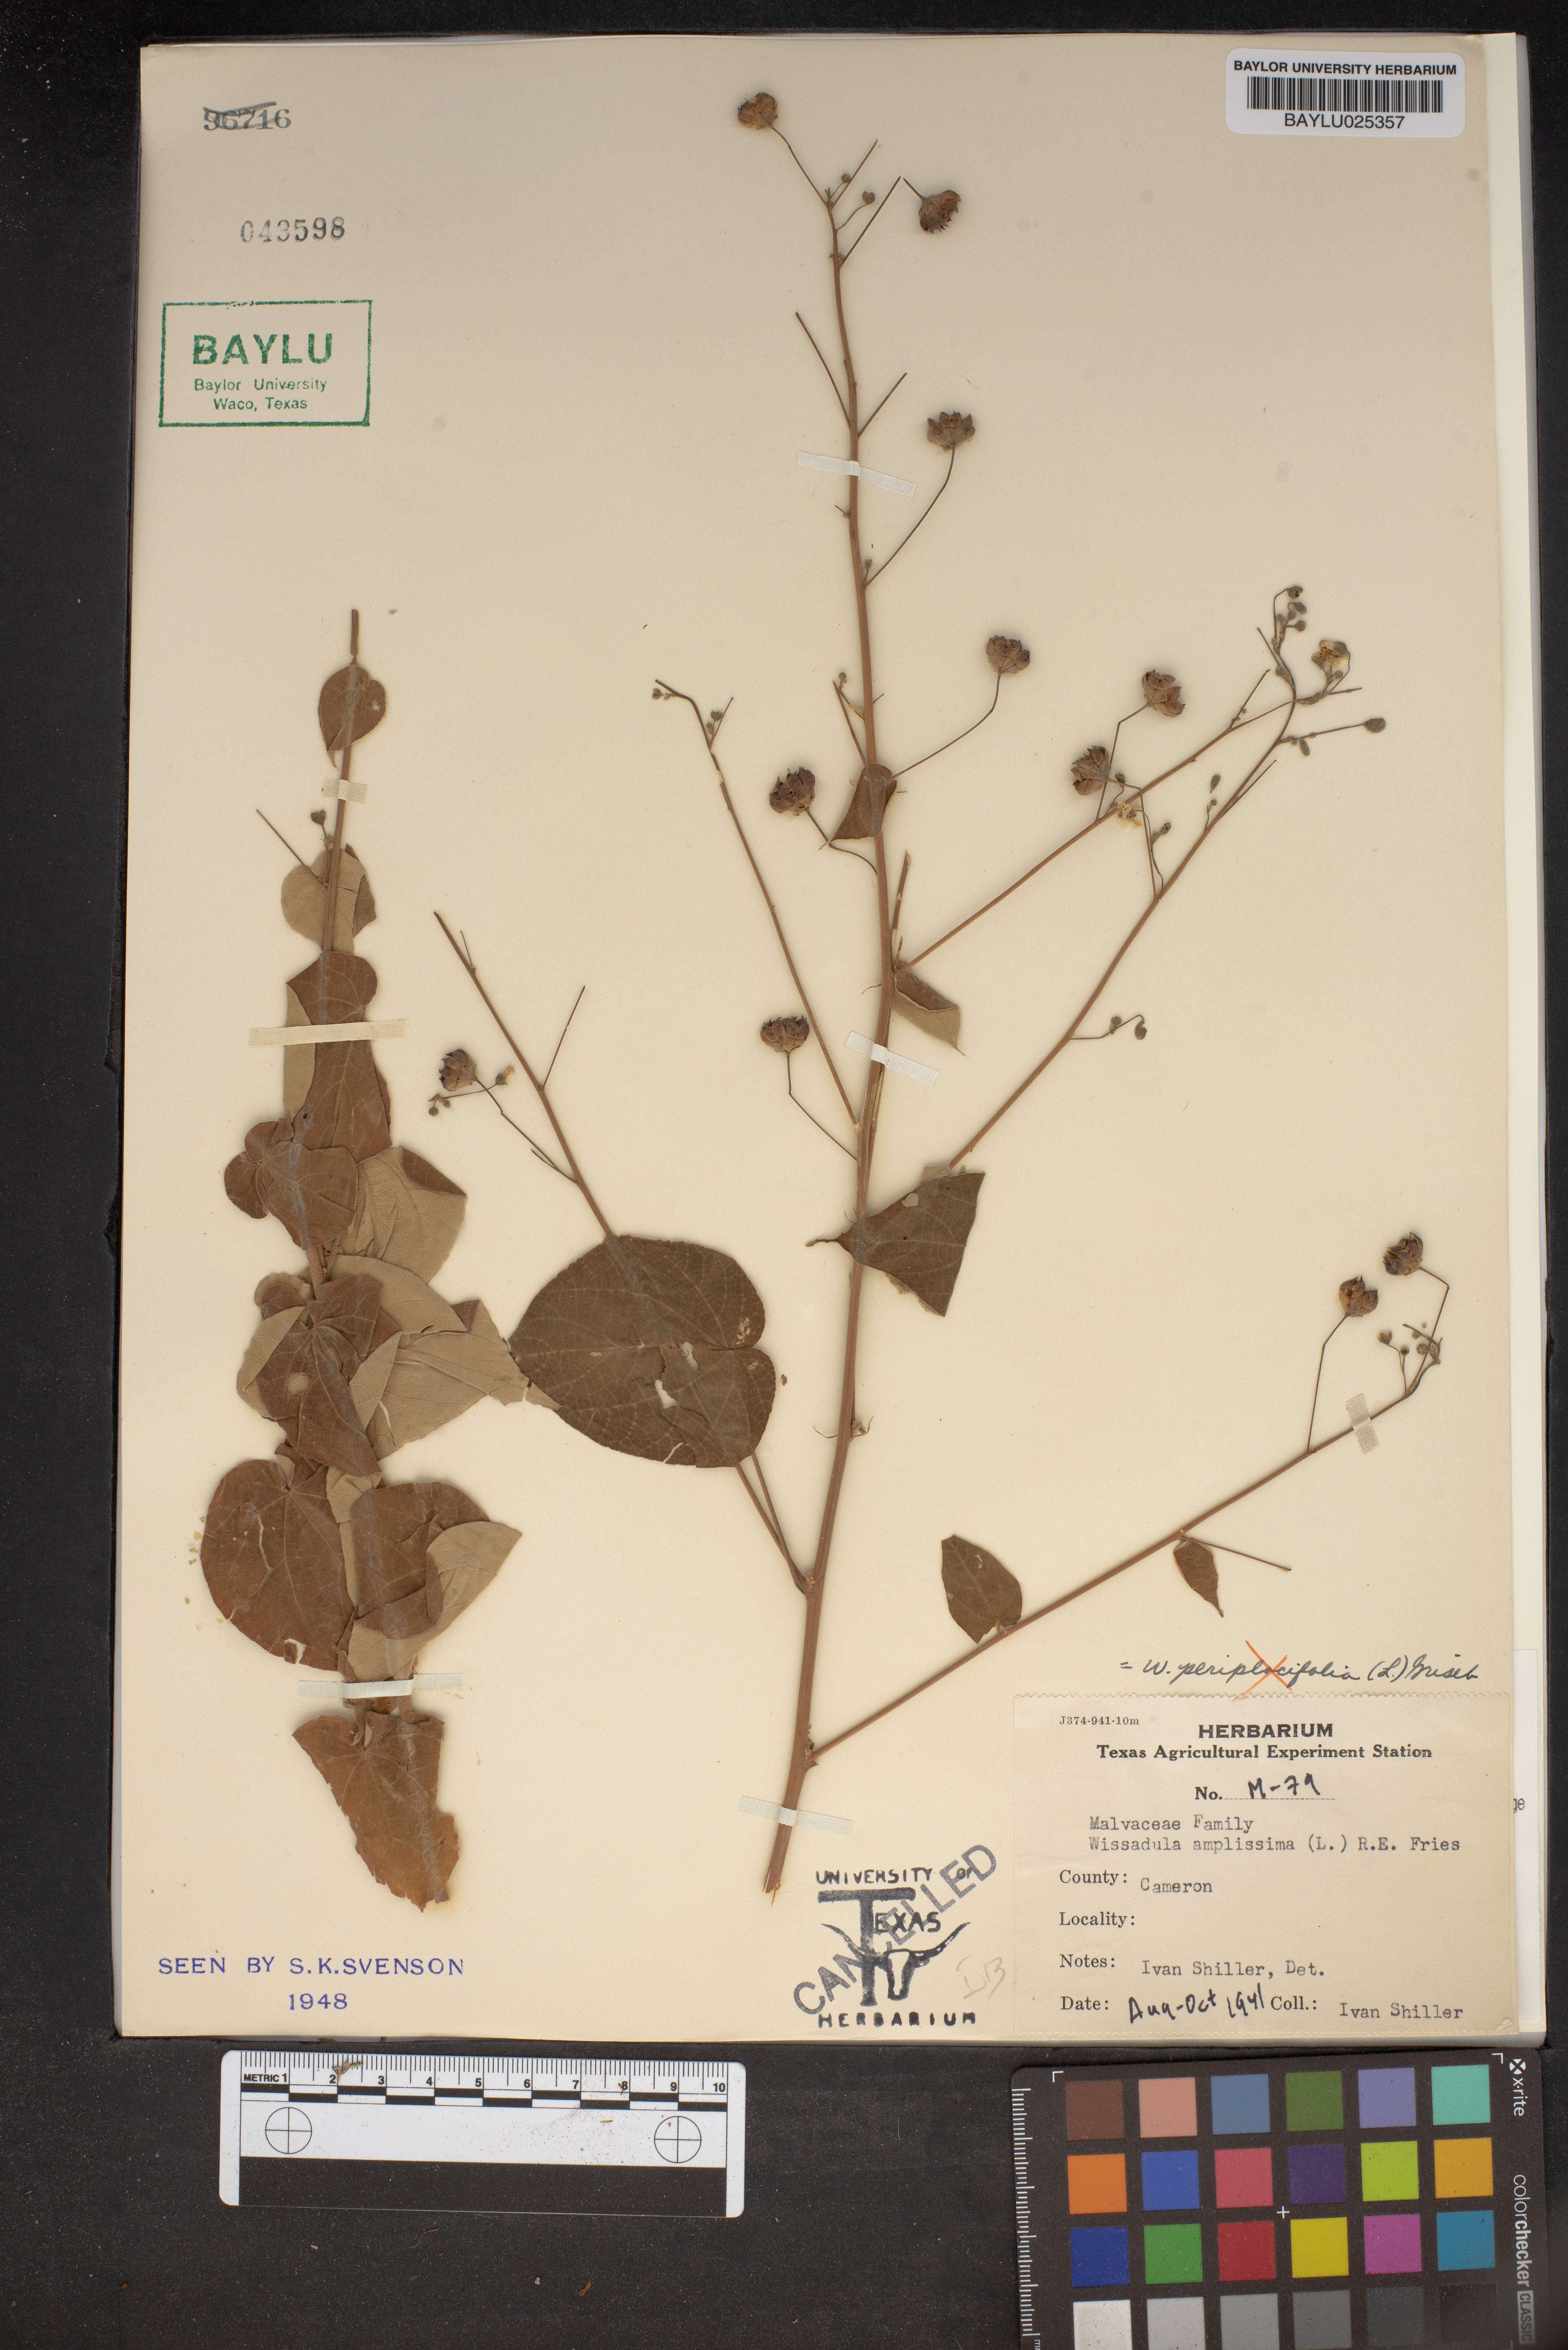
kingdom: Plantae
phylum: Tracheophyta
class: Magnoliopsida
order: Malvales
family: Malvaceae
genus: Wissadula
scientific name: Wissadula amplissima
